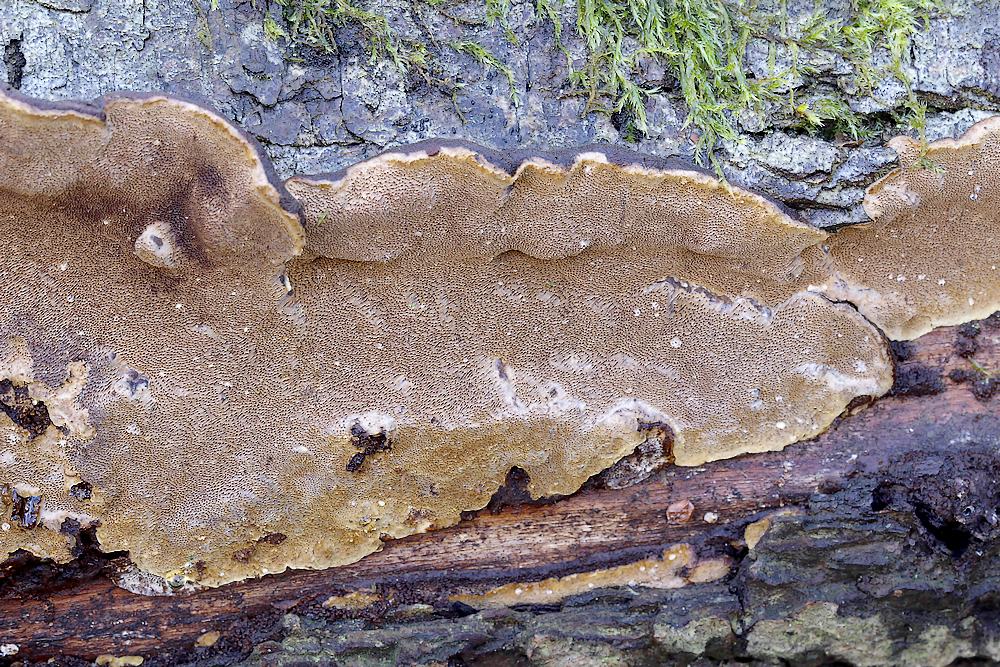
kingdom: Fungi
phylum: Basidiomycota
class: Agaricomycetes
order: Hymenochaetales
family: Hymenochaetaceae
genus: Phellinopsis
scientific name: Phellinopsis conchata
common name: pile-ildporesvamp
